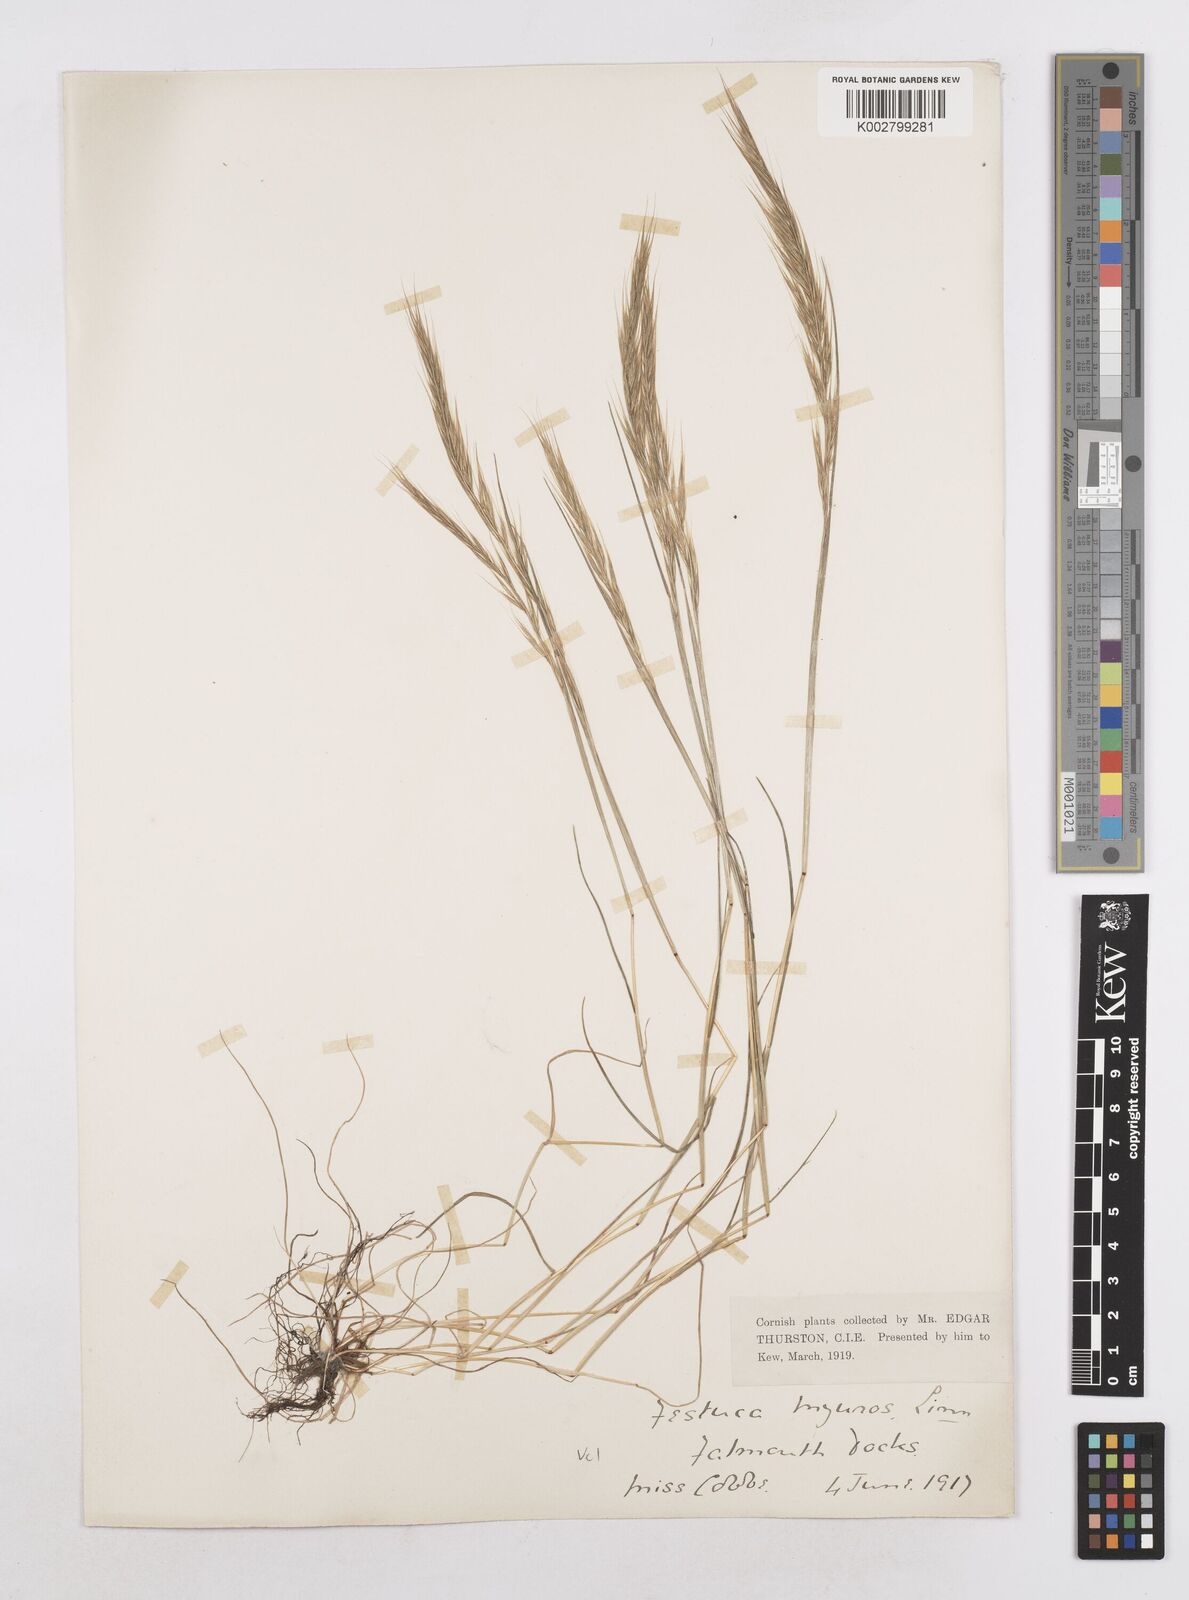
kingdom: Plantae
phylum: Tracheophyta
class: Liliopsida
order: Poales
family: Poaceae
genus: Festuca
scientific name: Festuca myuros
